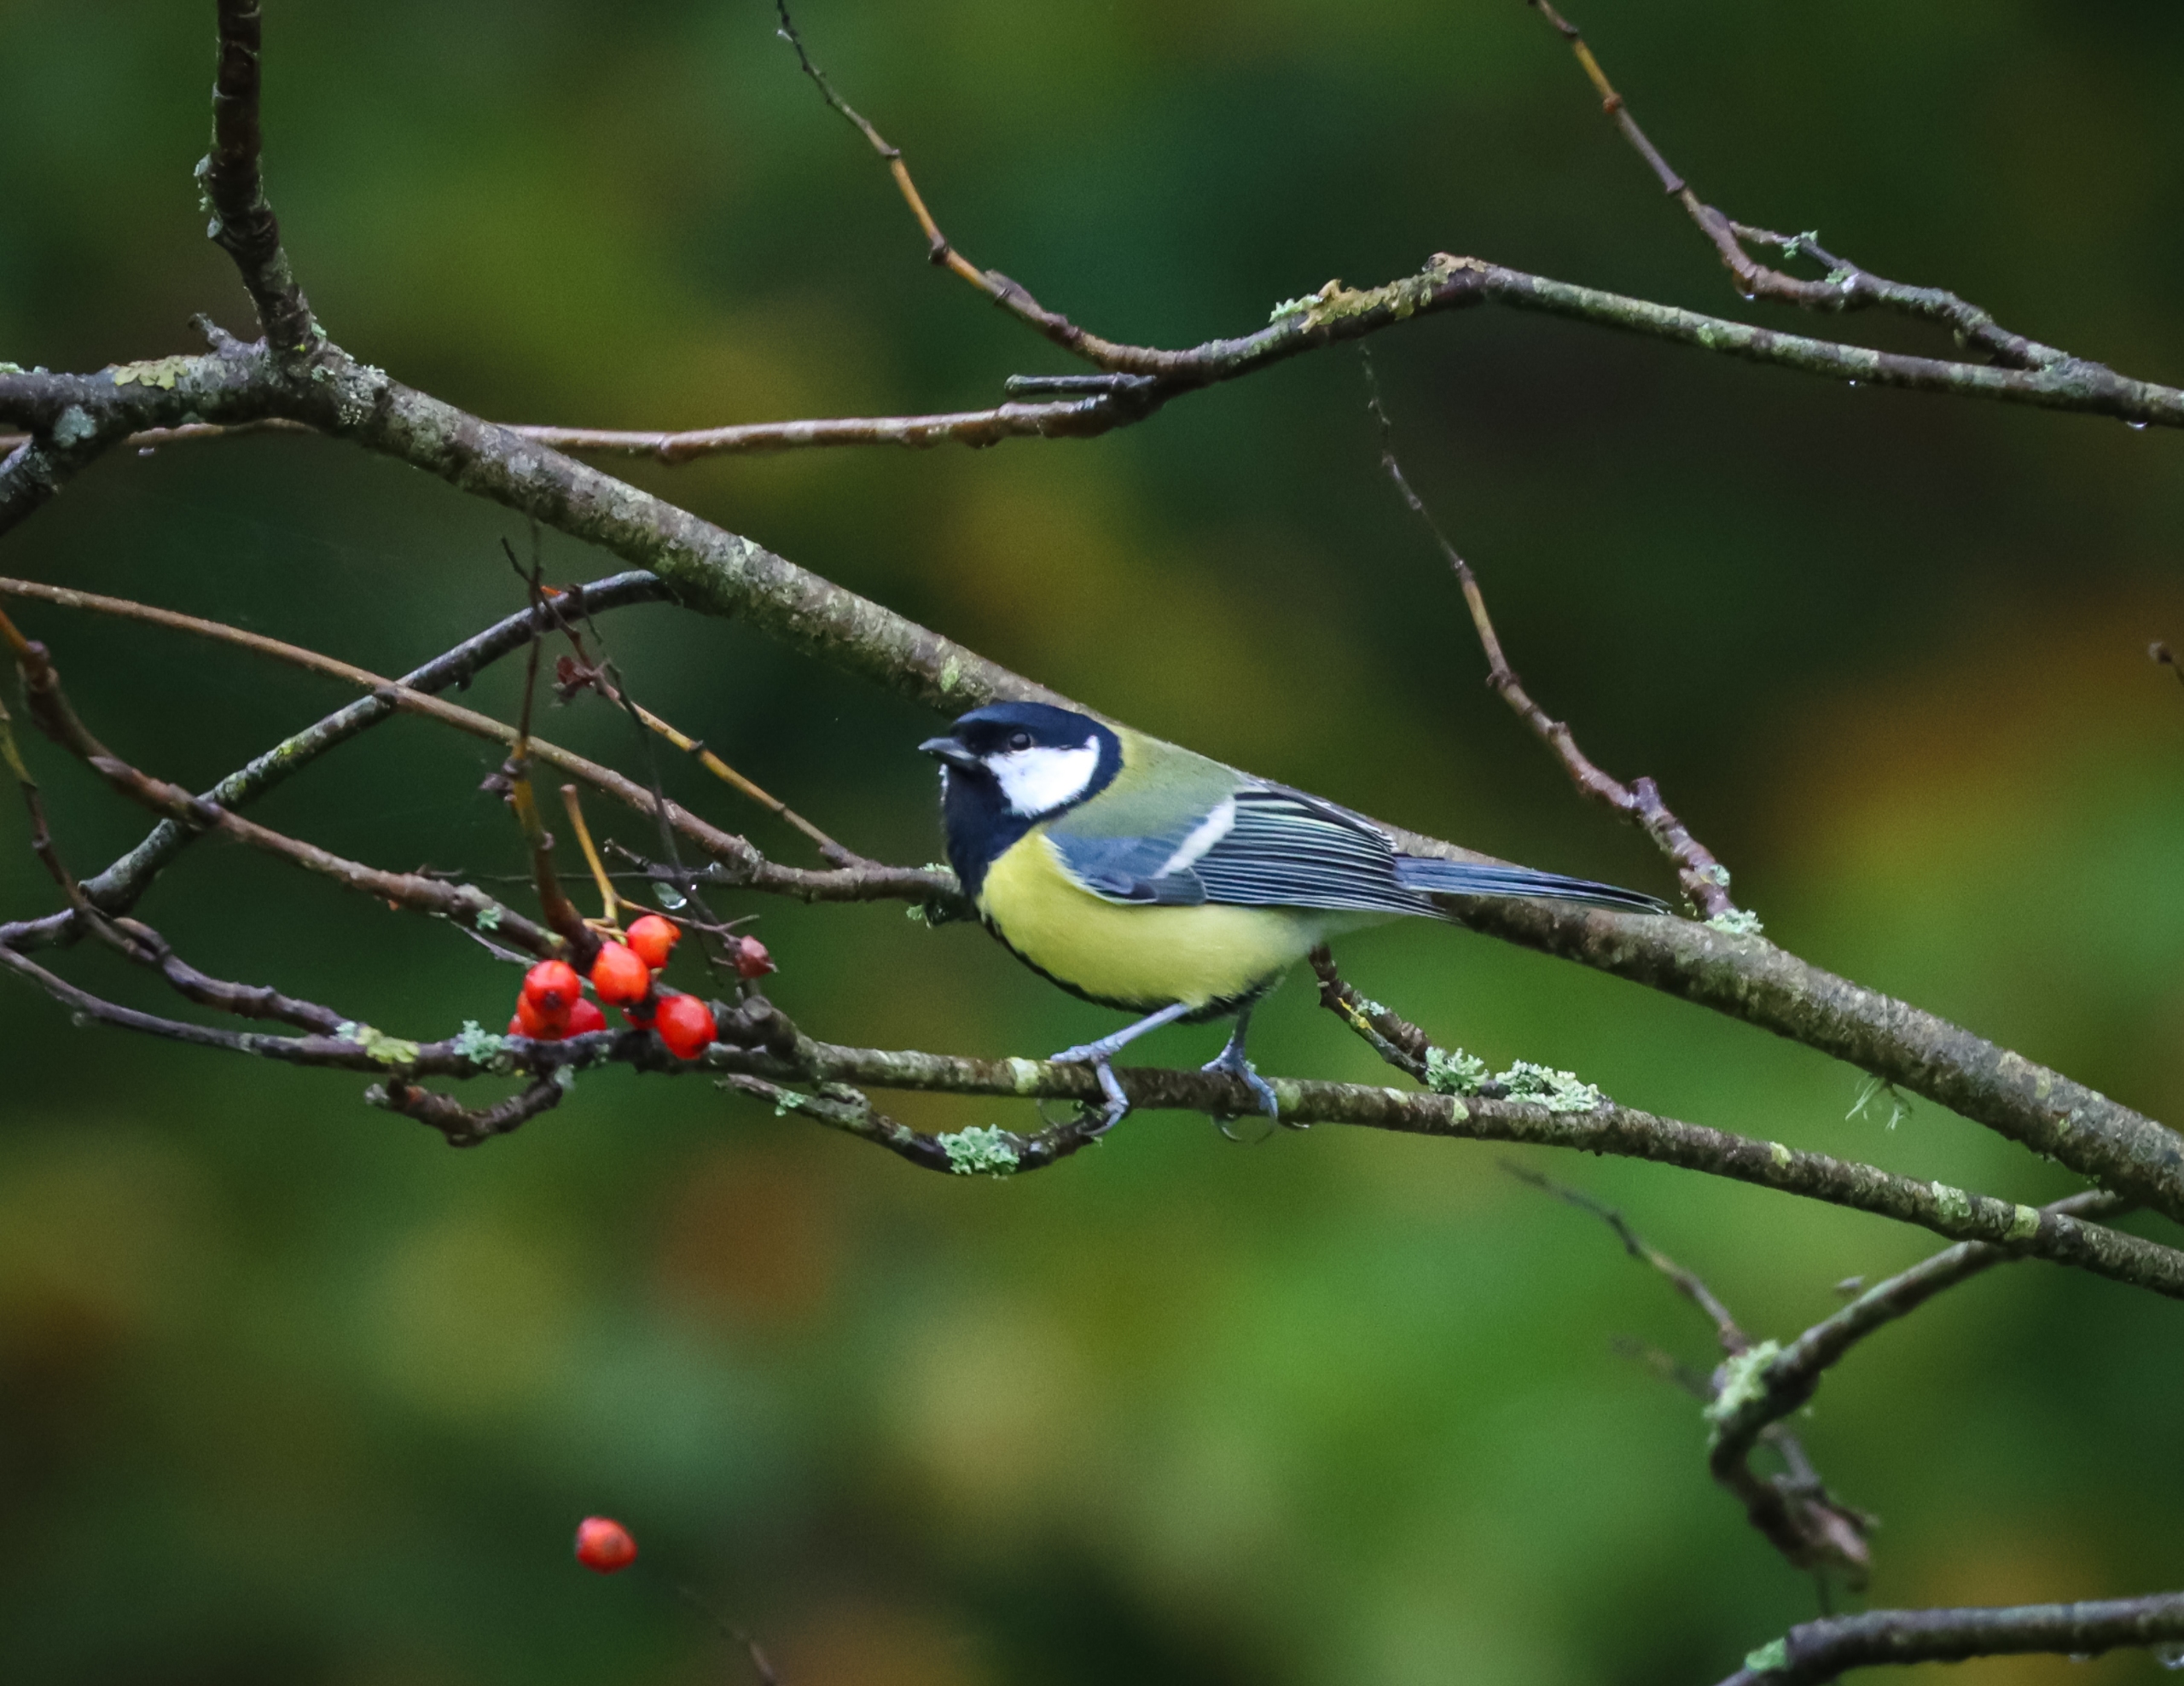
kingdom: Animalia
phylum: Chordata
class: Aves
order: Passeriformes
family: Paridae
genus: Parus
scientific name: Parus major
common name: Musvit
